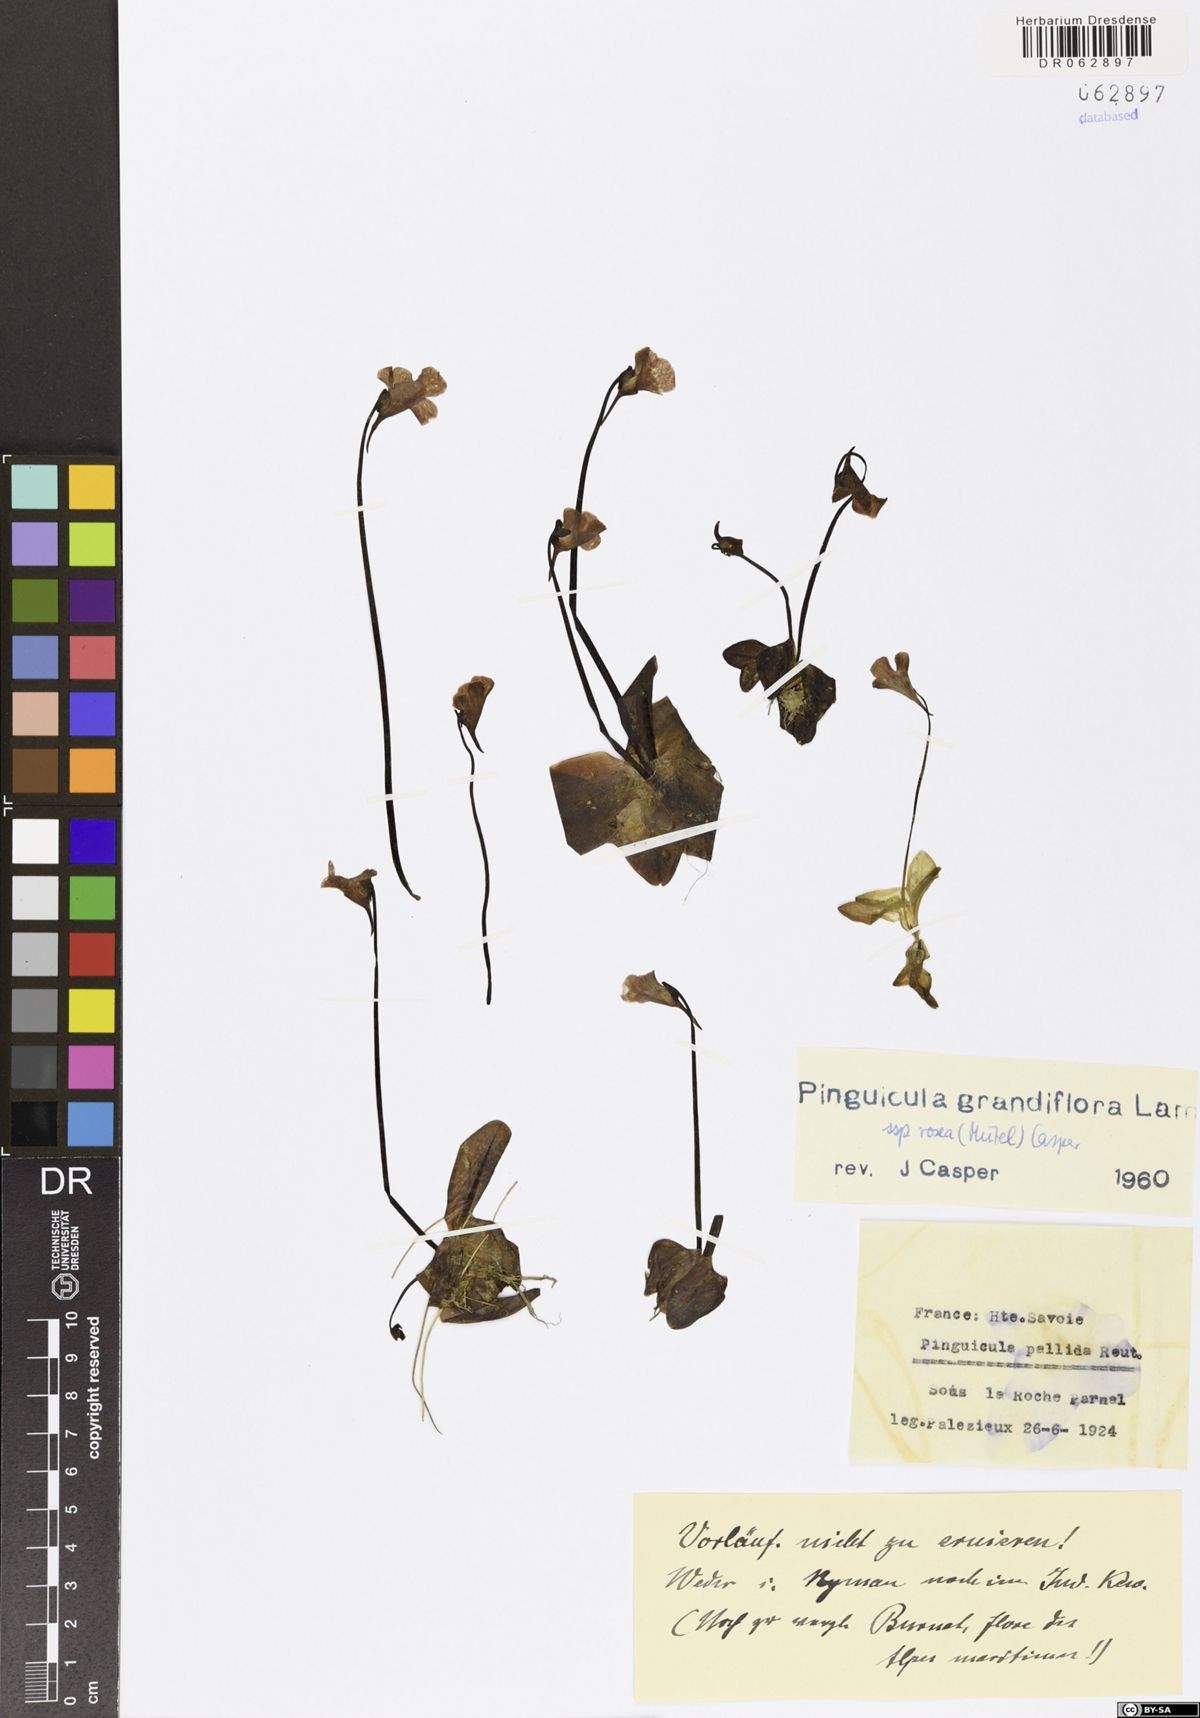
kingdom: Plantae
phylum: Tracheophyta
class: Magnoliopsida
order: Lamiales
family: Lentibulariaceae
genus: Pinguicula
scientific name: Pinguicula grandiflora
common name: Large-flowered butterwort
